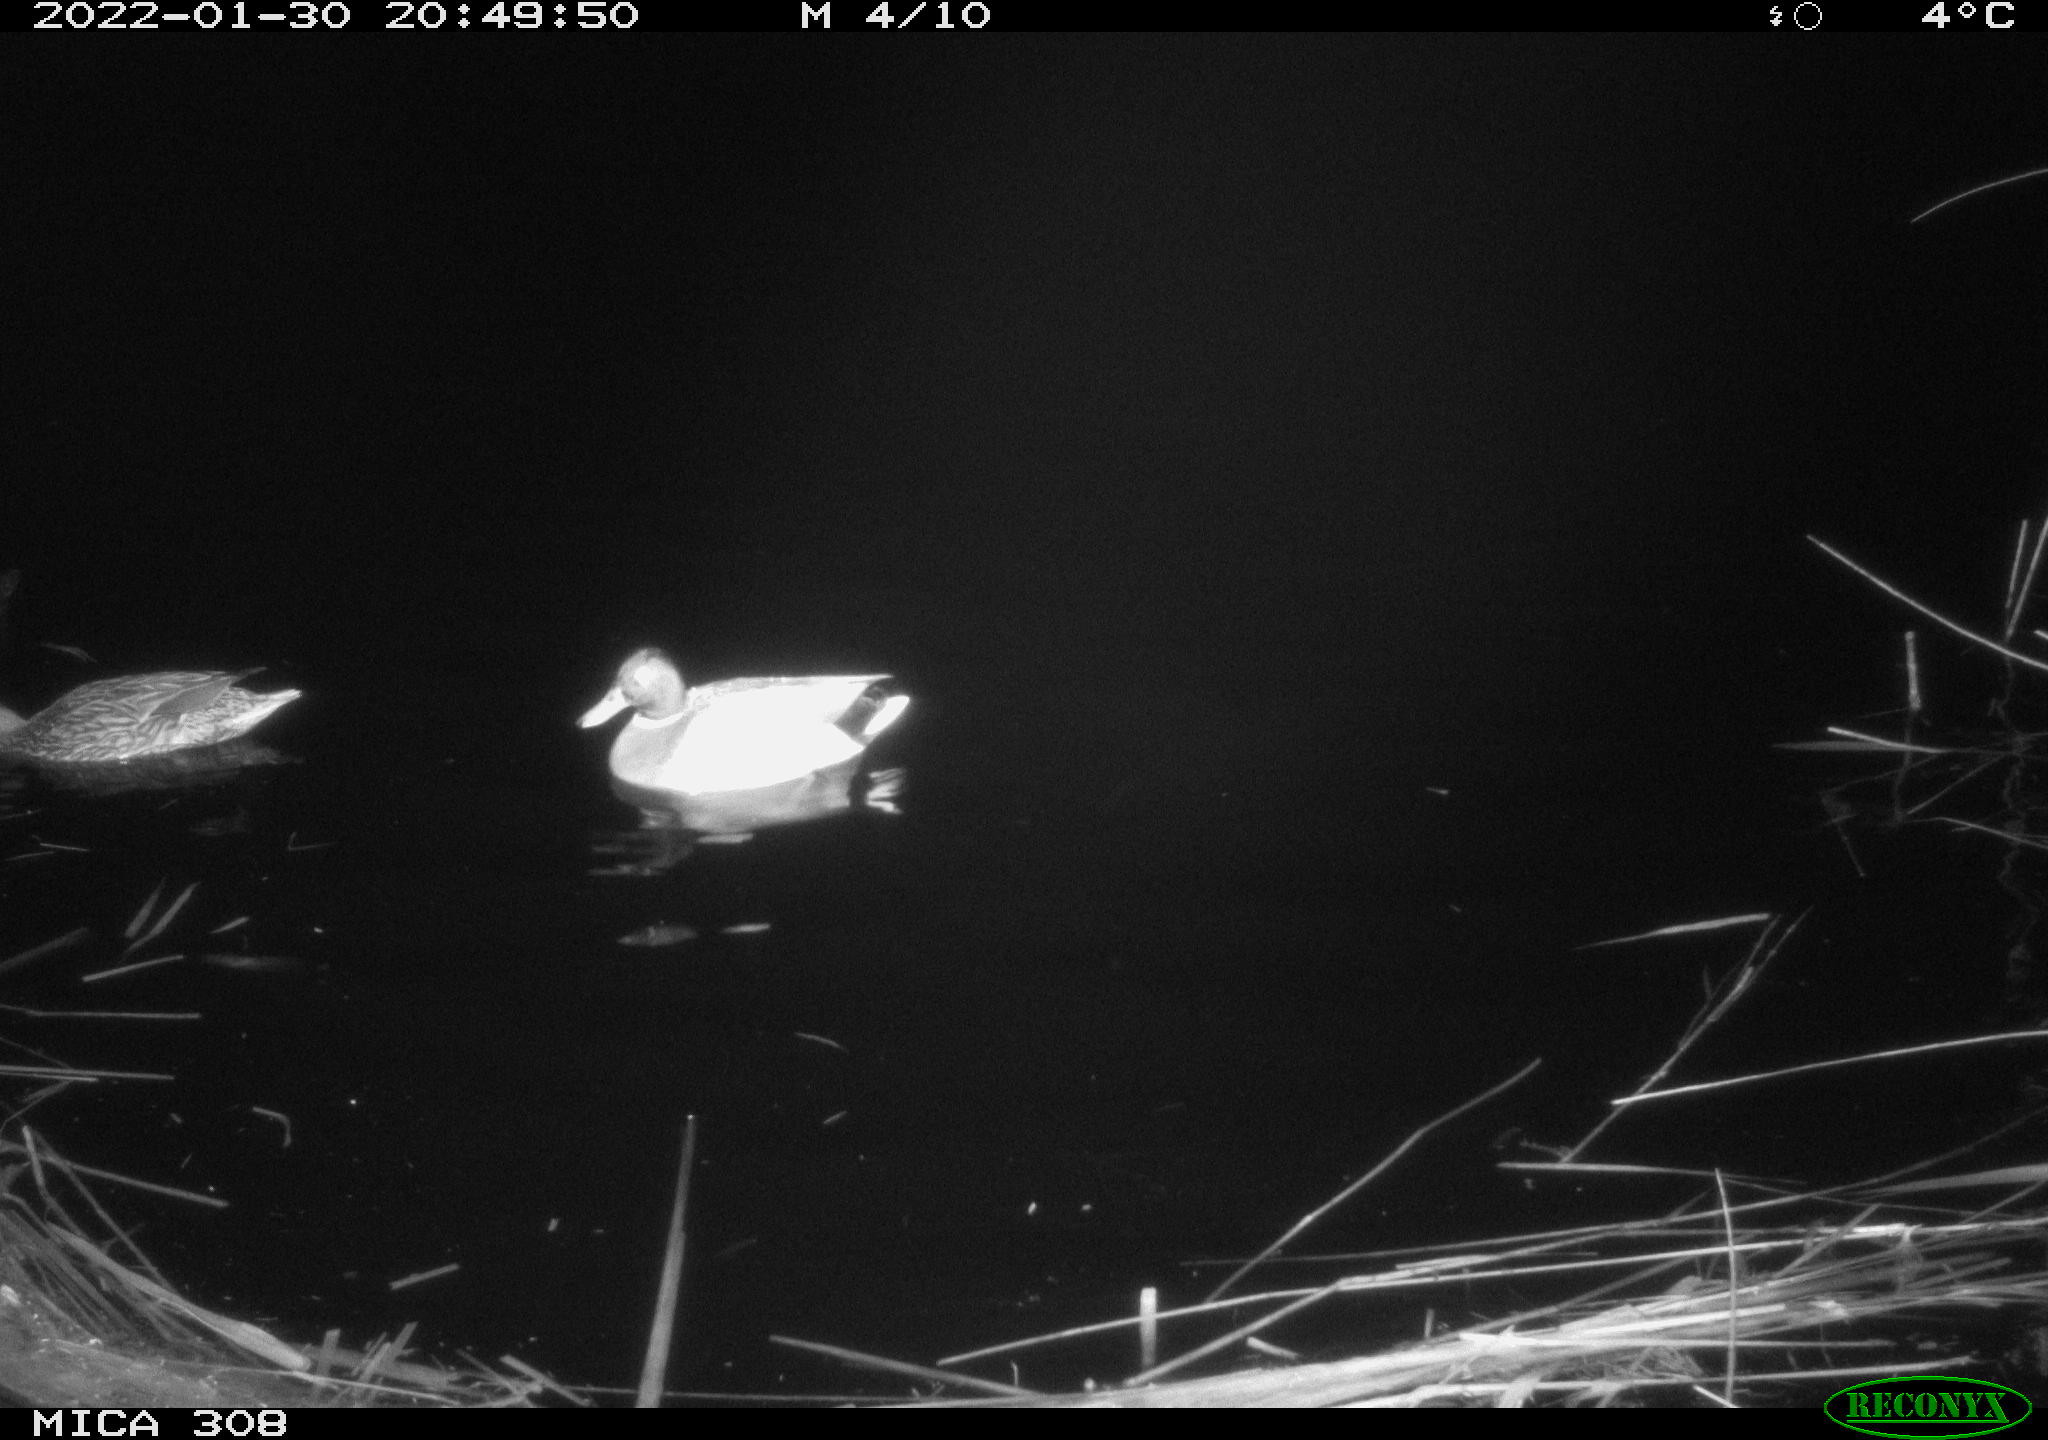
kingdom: Animalia
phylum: Chordata
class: Aves
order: Anseriformes
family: Anatidae
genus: Anas
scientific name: Anas
